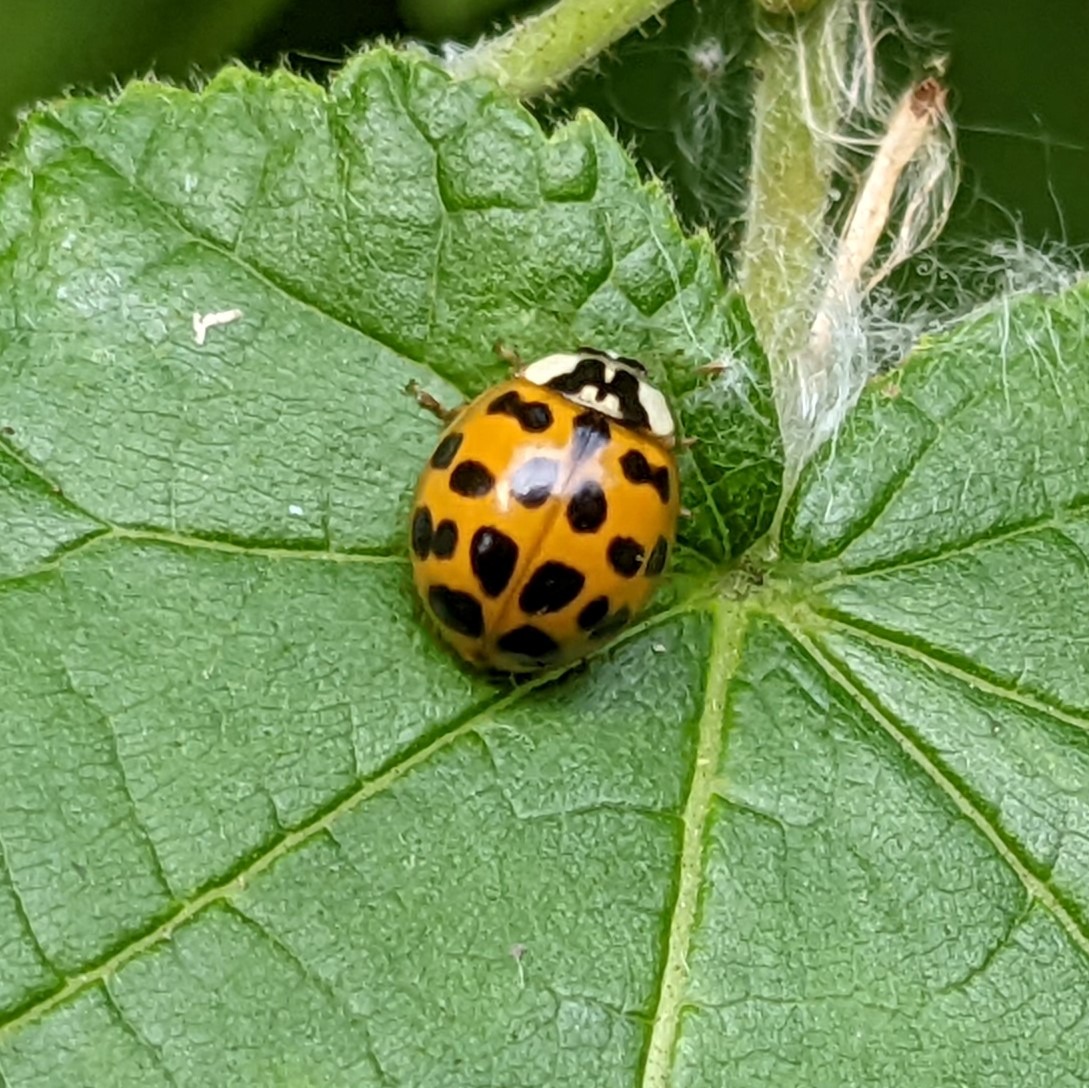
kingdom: Animalia
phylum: Arthropoda
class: Insecta
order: Coleoptera
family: Coccinellidae
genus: Harmonia
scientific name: Harmonia axyridis
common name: Harlekinmariehøne
